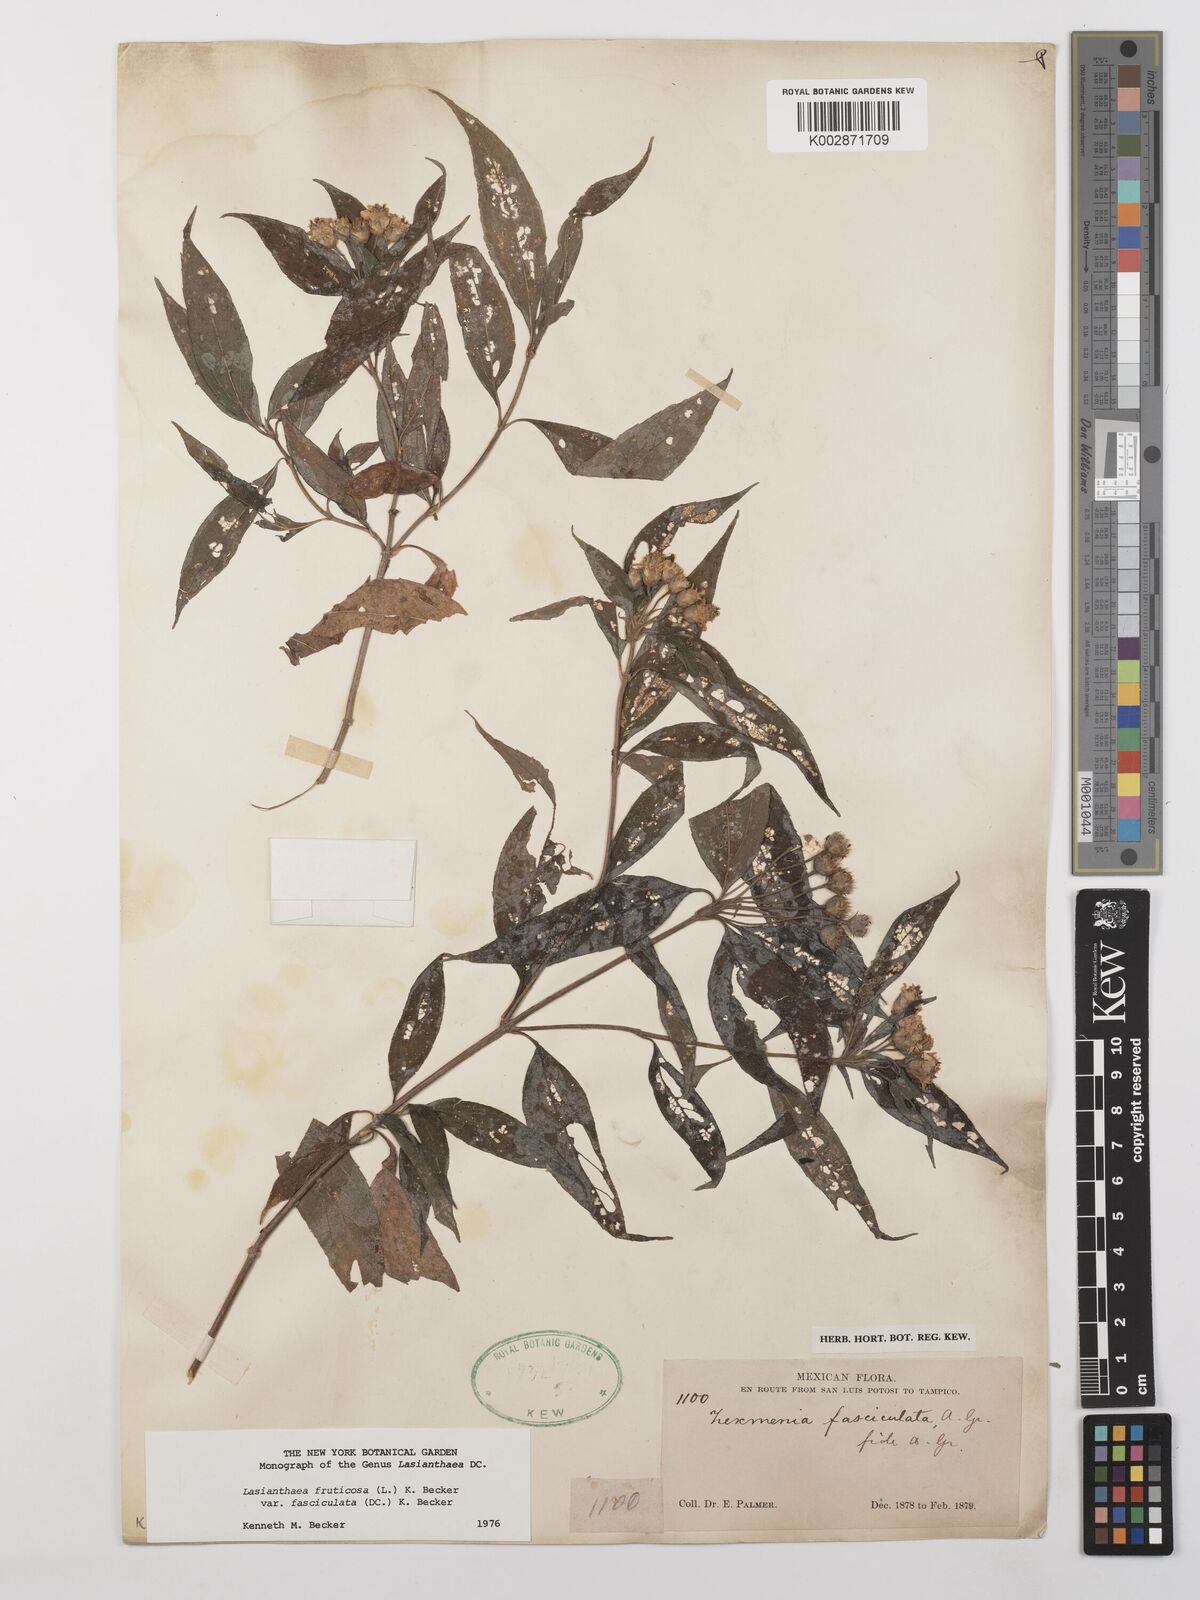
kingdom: Plantae
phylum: Tracheophyta
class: Magnoliopsida
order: Asterales
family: Asteraceae
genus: Lasianthaea
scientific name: Lasianthaea fruticosa
